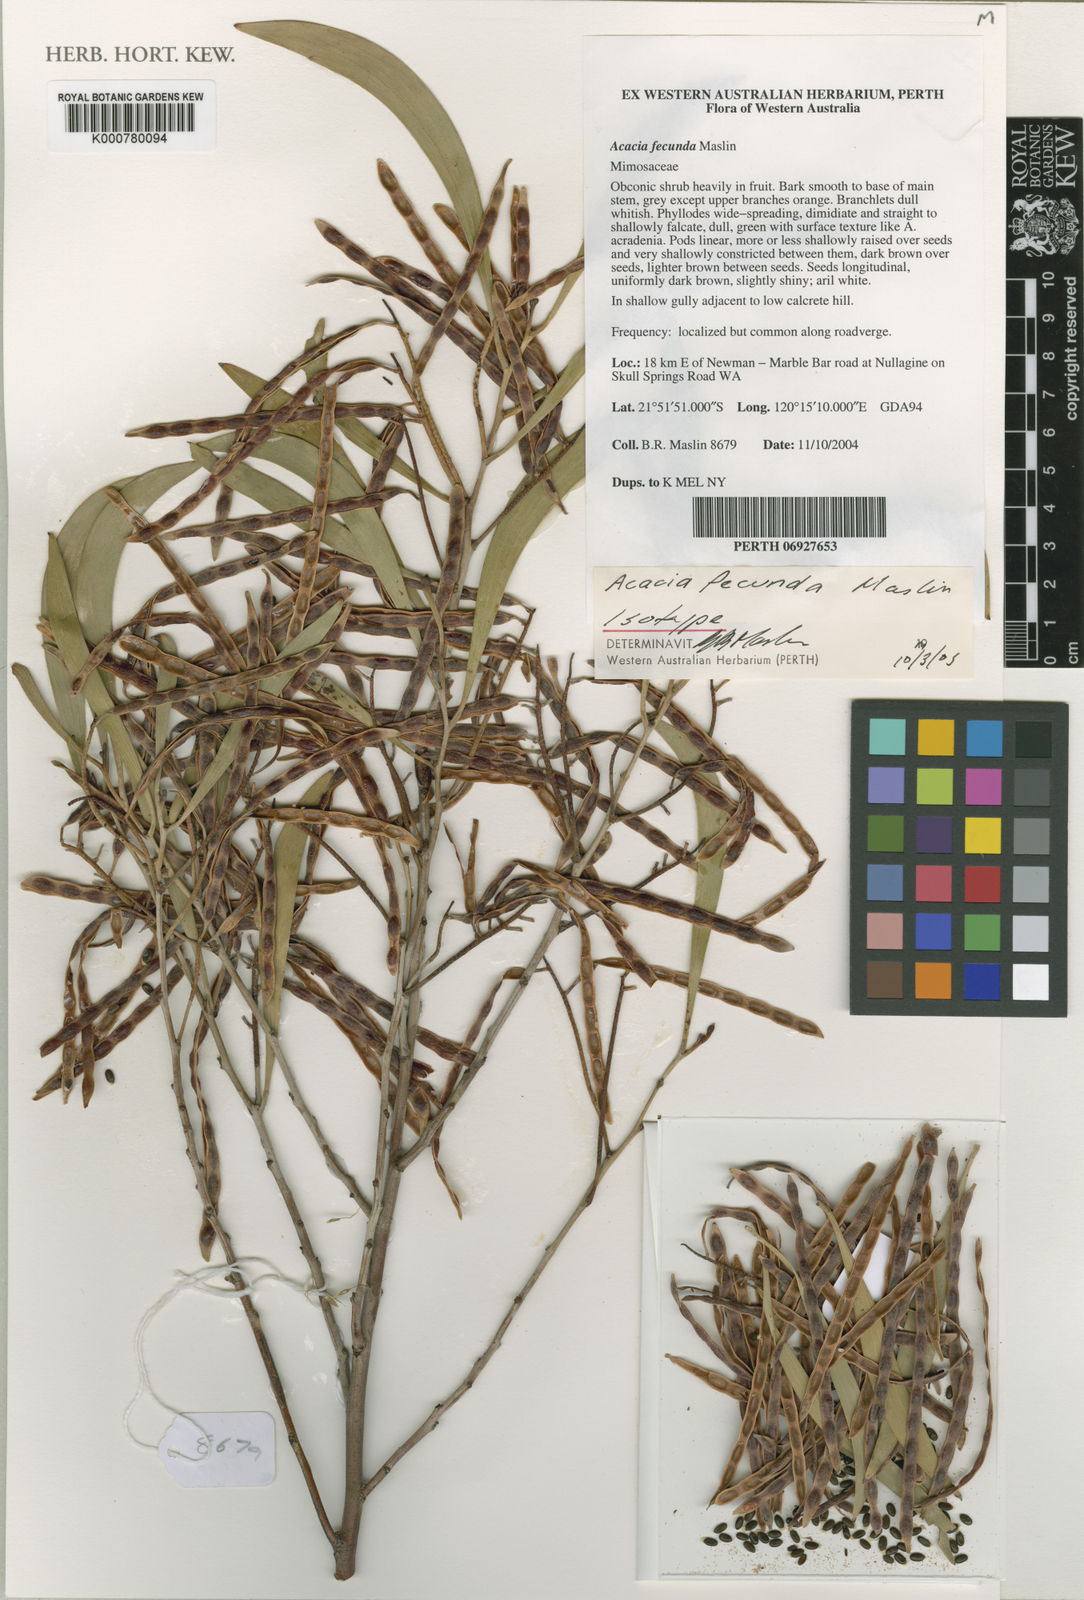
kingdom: Plantae
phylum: Tracheophyta
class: Magnoliopsida
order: Fabales
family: Fabaceae
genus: Acacia
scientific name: Acacia fecunda
